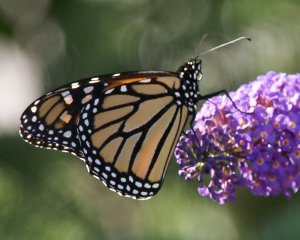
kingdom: Animalia
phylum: Arthropoda
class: Insecta
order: Lepidoptera
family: Nymphalidae
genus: Danaus
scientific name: Danaus plexippus
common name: Monarch
